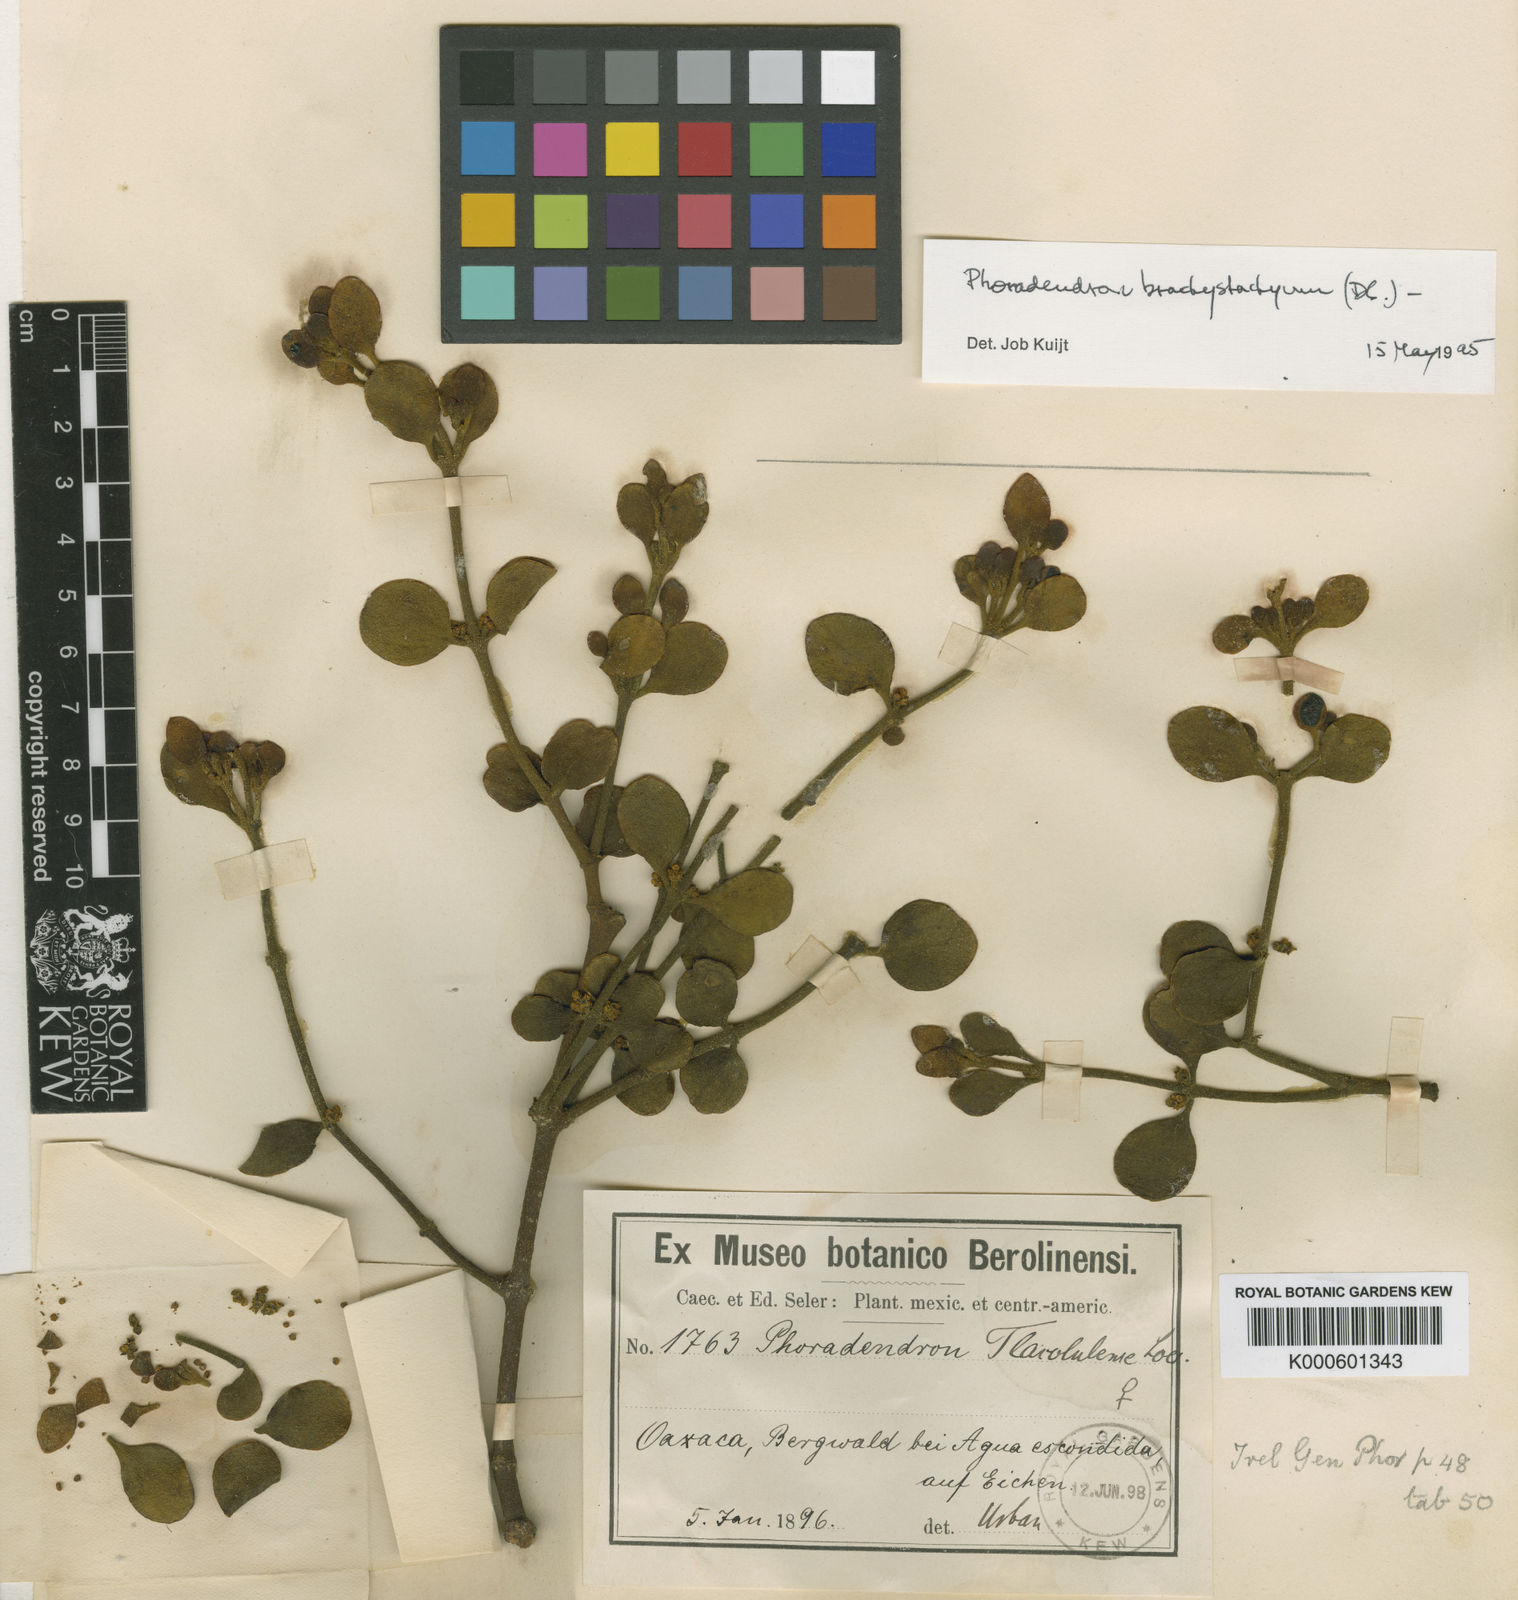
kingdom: Plantae
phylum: Tracheophyta
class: Magnoliopsida
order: Santalales
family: Viscaceae
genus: Phoradendron
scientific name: Phoradendron brachystachyum
